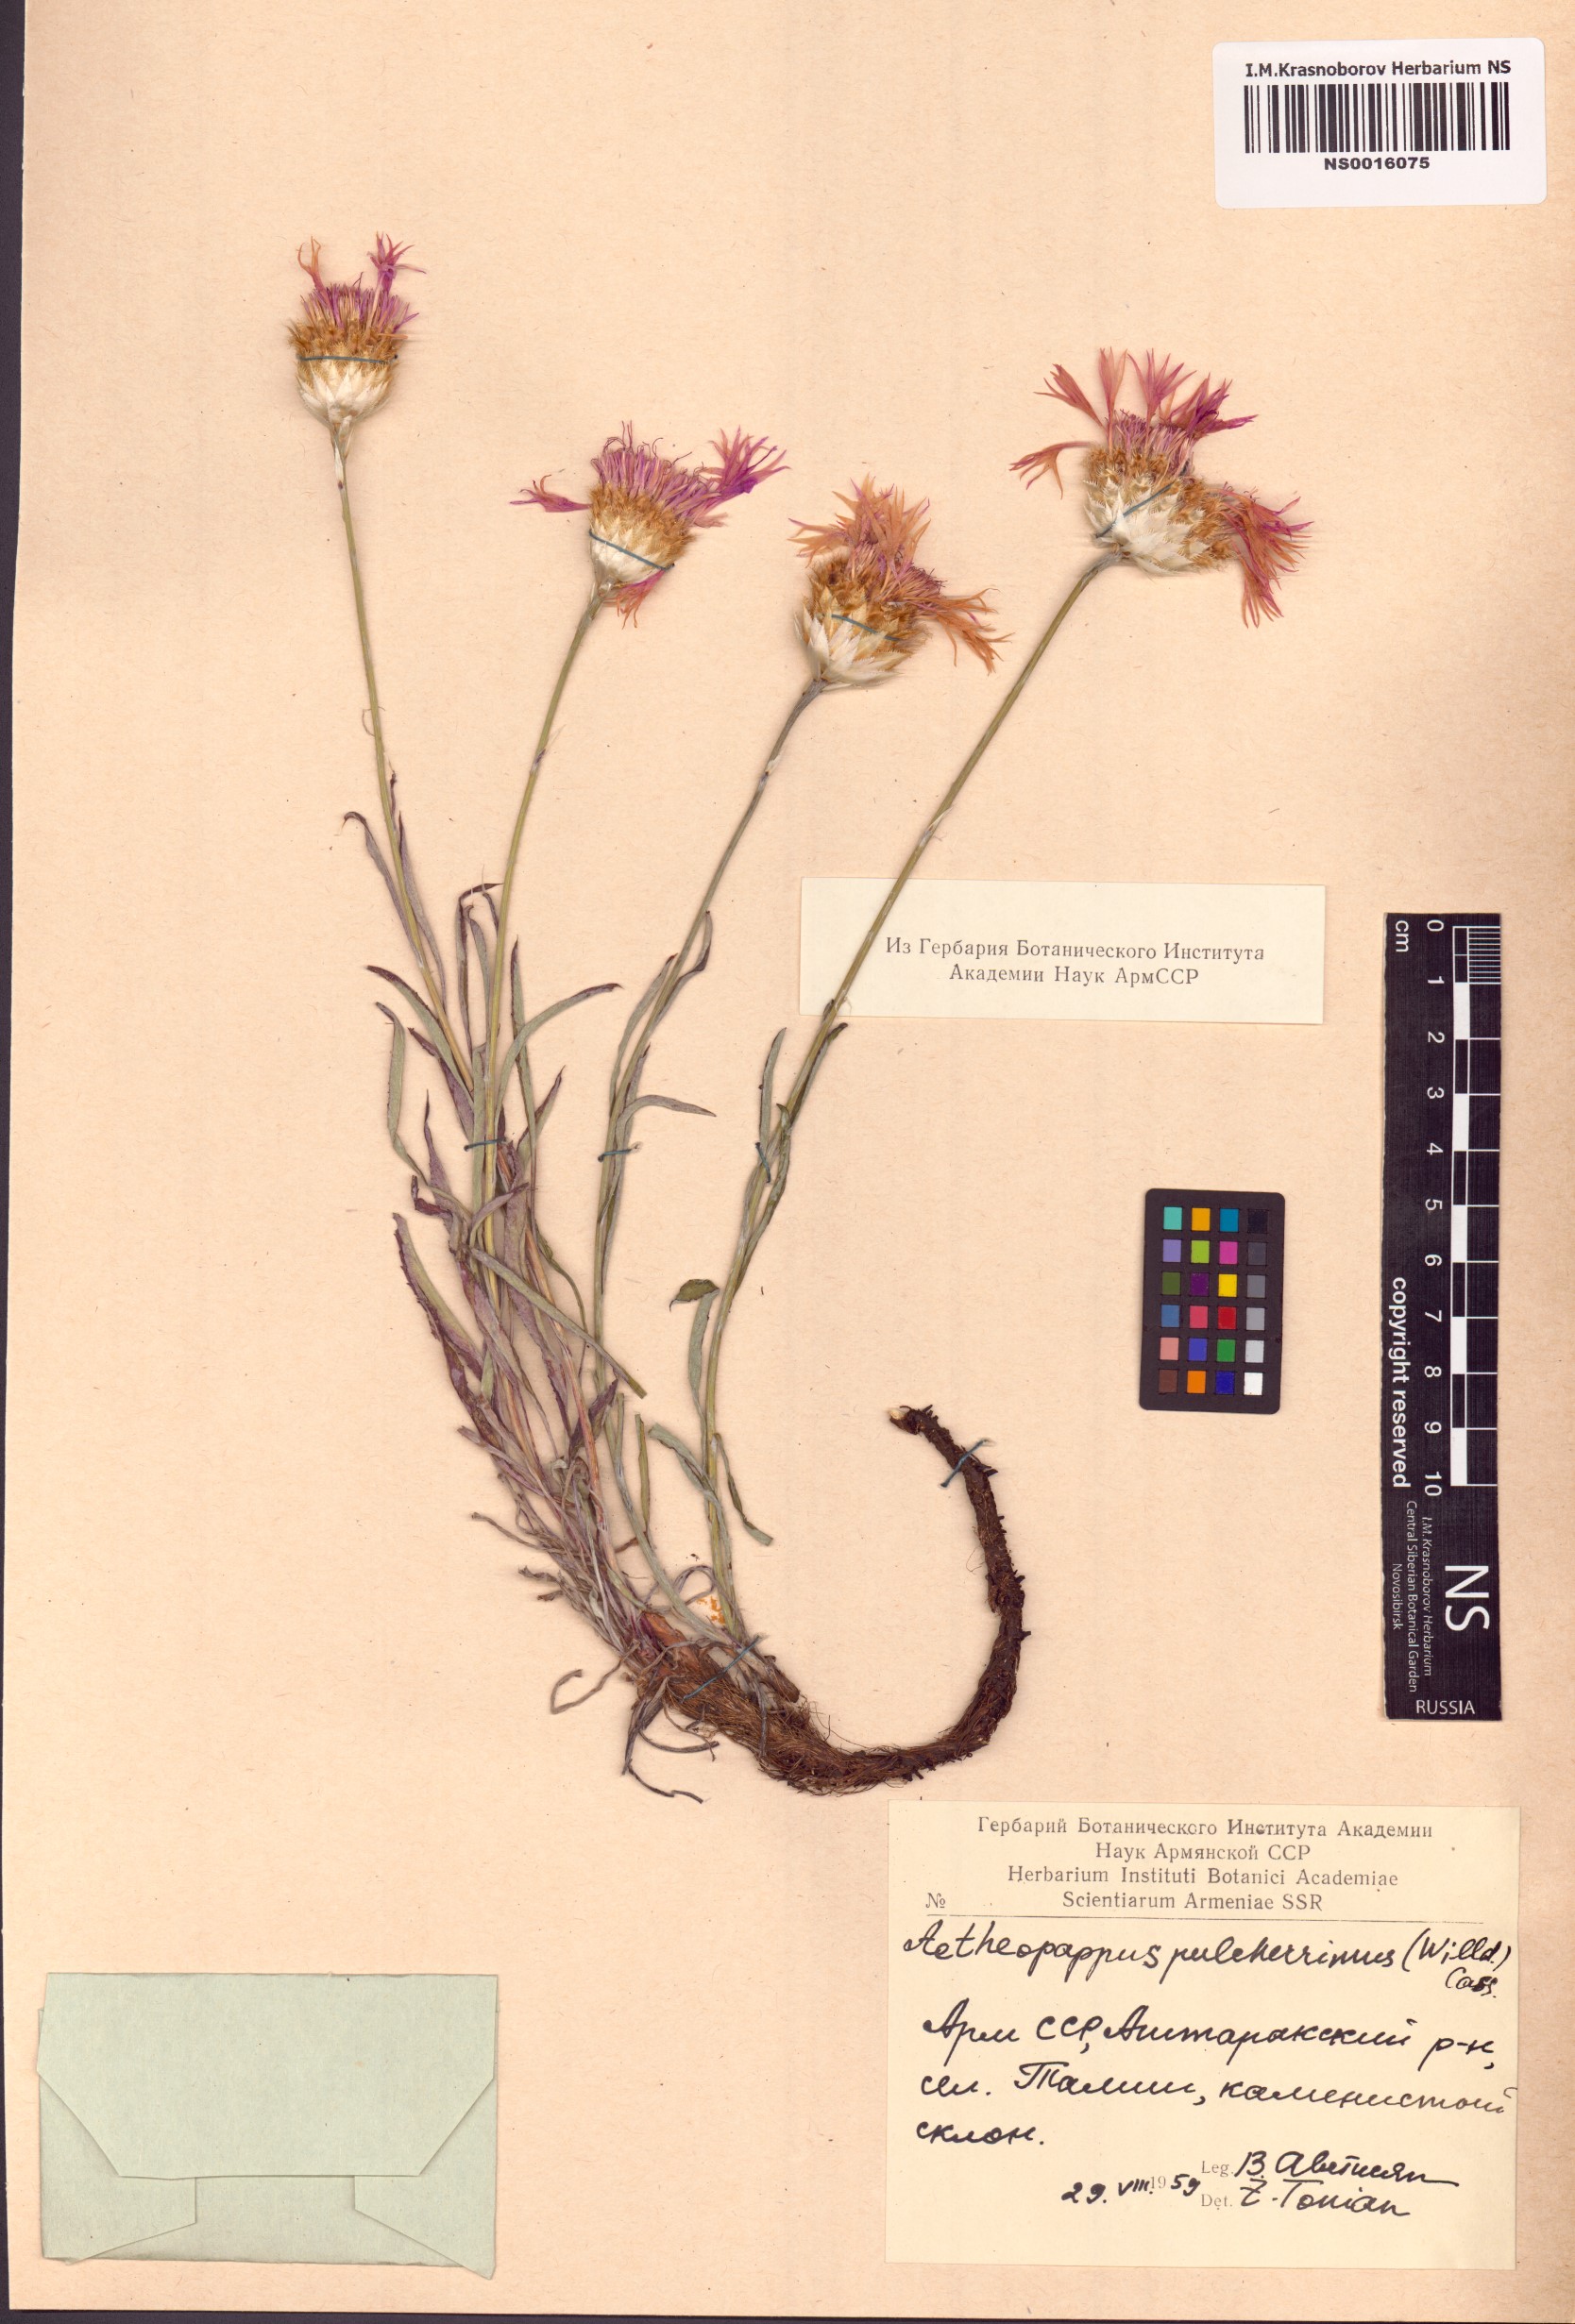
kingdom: Plantae
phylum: Tracheophyta
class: Magnoliopsida
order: Asterales
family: Asteraceae
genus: Psephellus
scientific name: Psephellus pulcherrimus
